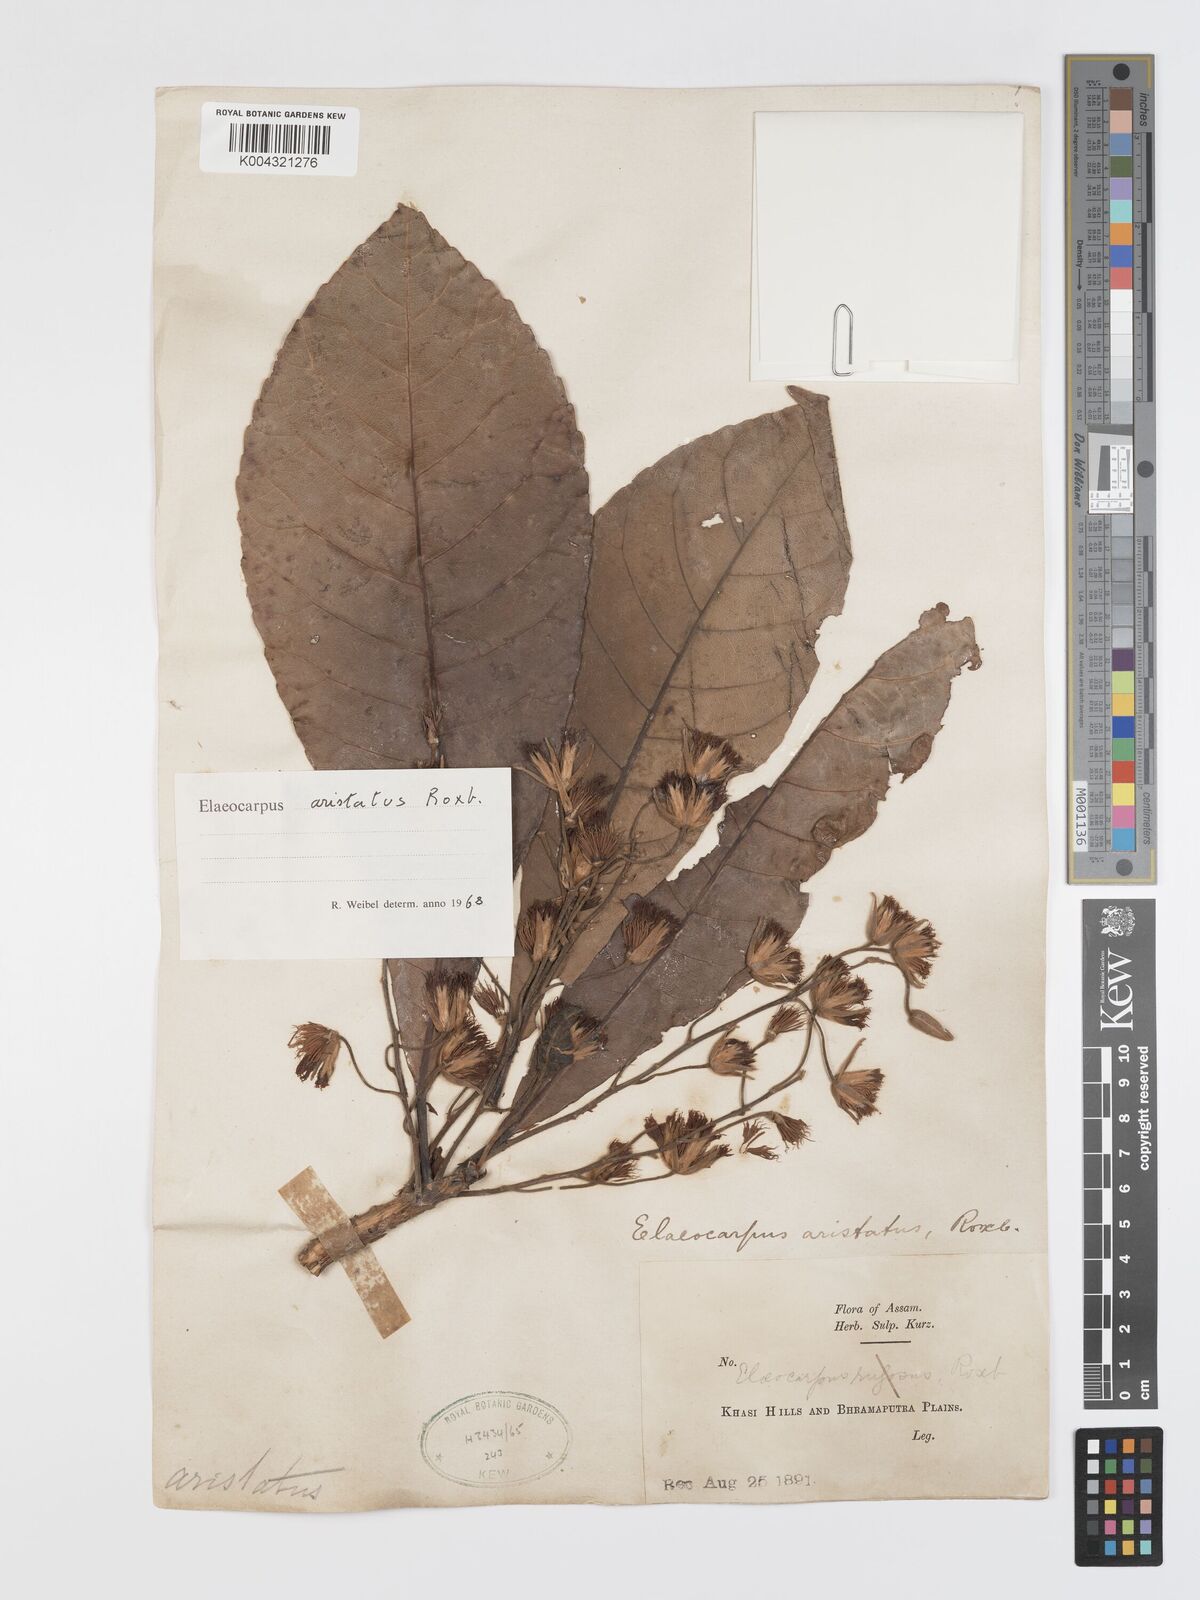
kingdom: Plantae
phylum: Tracheophyta
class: Magnoliopsida
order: Oxalidales
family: Elaeocarpaceae
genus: Elaeocarpus
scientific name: Elaeocarpus aristatus
